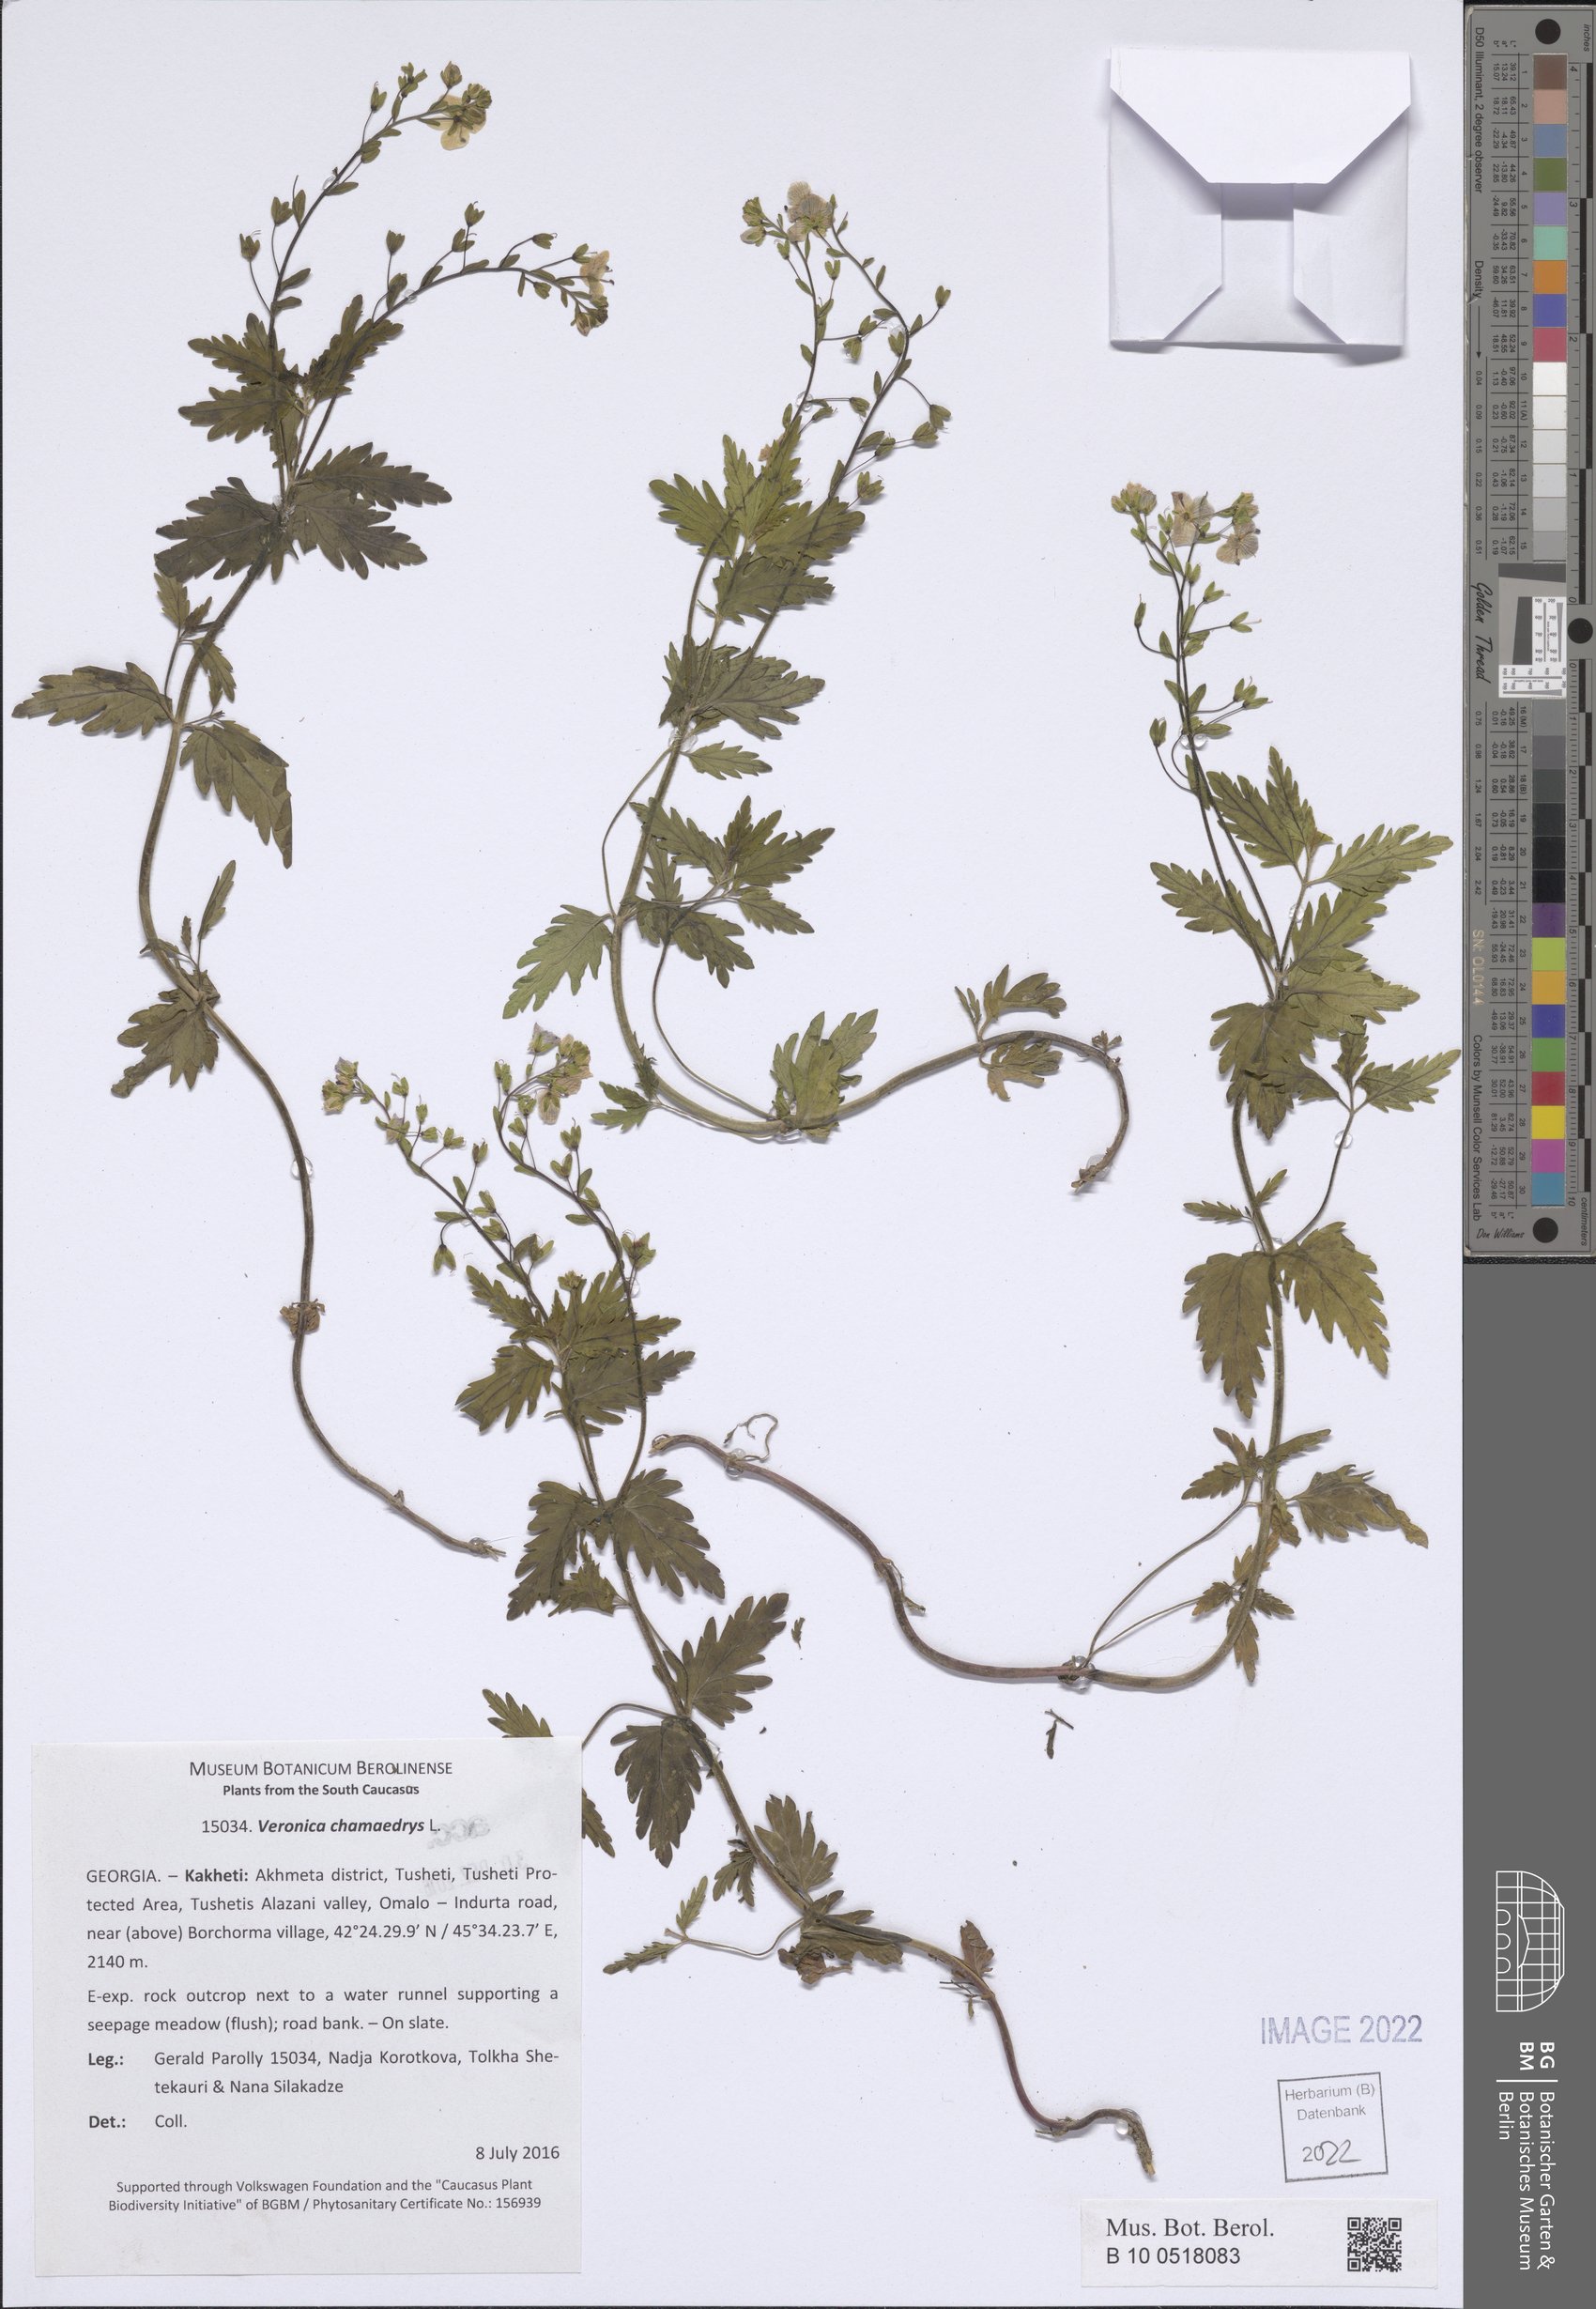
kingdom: Plantae
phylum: Tracheophyta
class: Magnoliopsida
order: Lamiales
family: Plantaginaceae
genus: Veronica
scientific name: Veronica chamaedrys
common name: Germander speedwell
